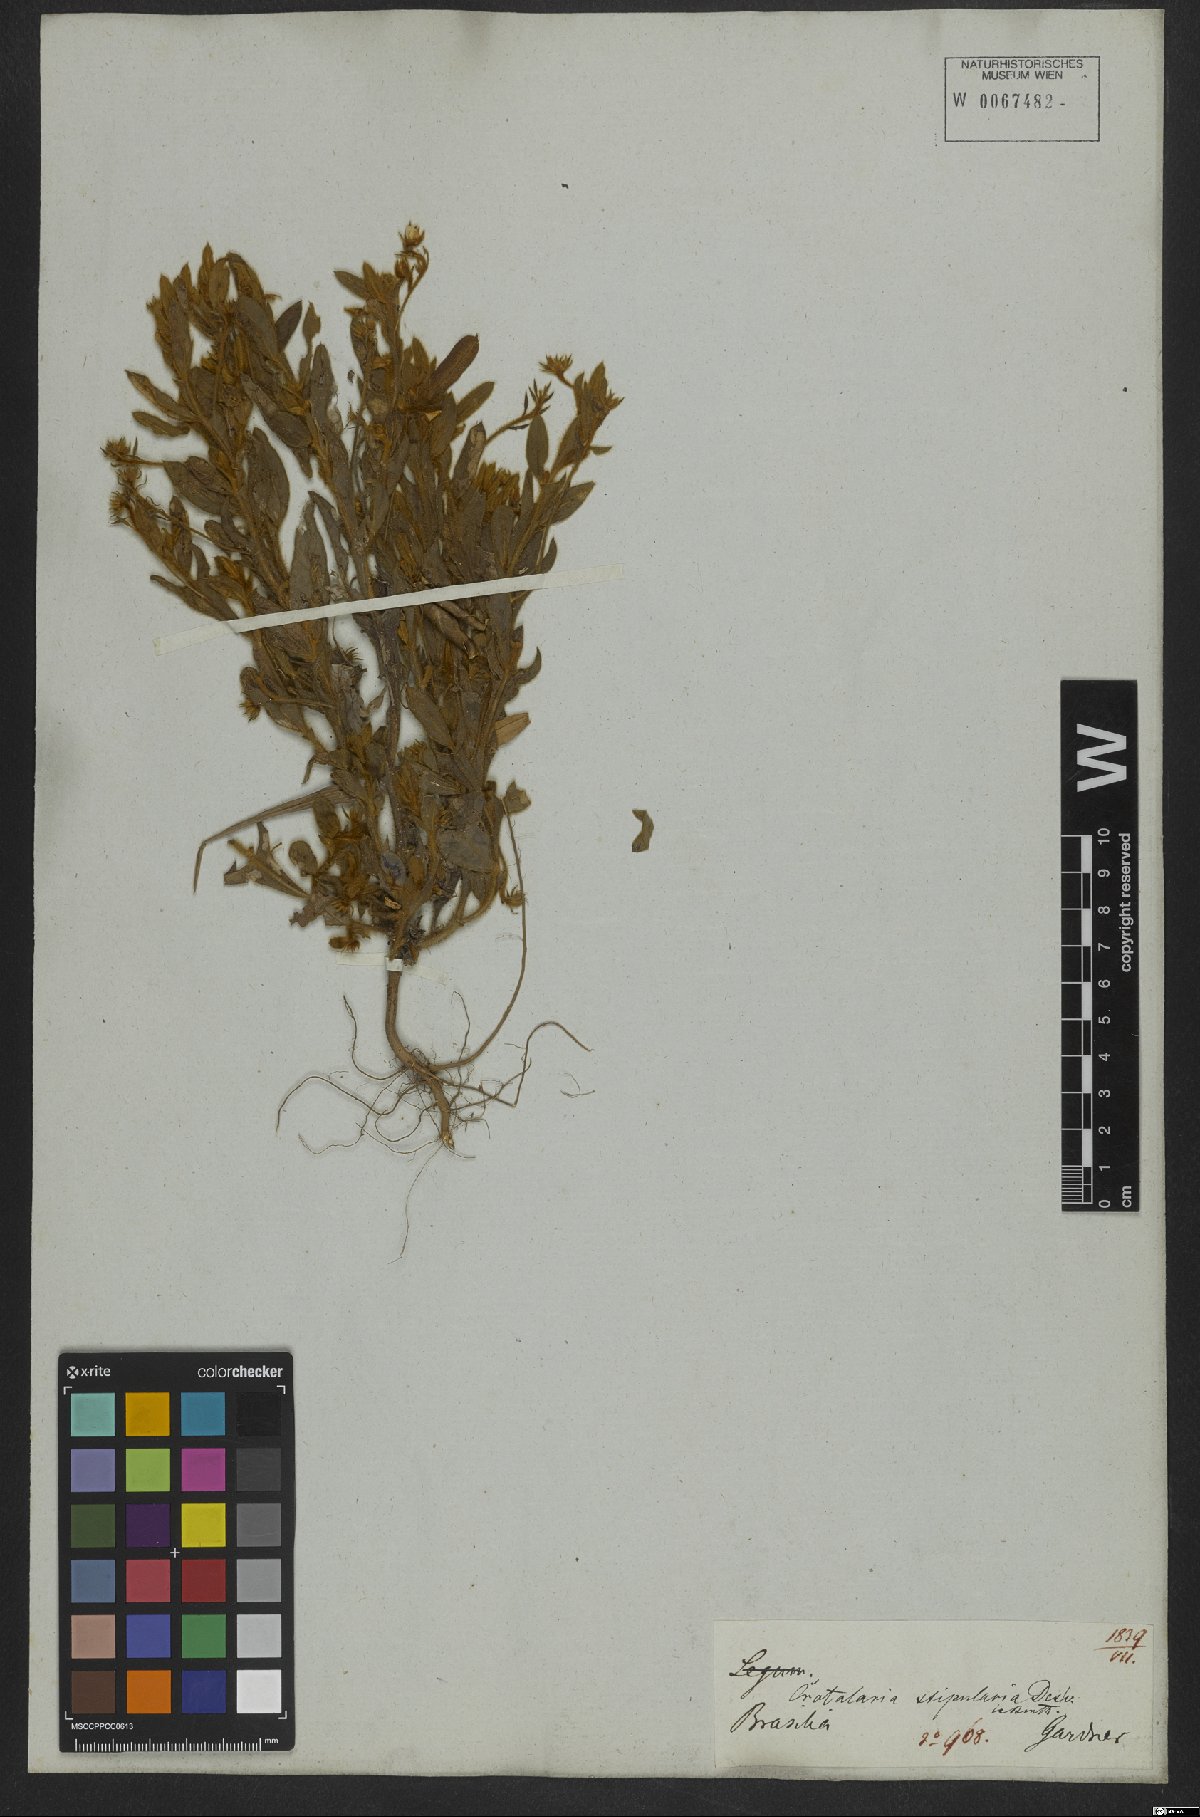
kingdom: Plantae
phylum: Tracheophyta
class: Magnoliopsida
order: Fabales
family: Fabaceae
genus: Crotalaria
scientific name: Crotalaria stipularia
